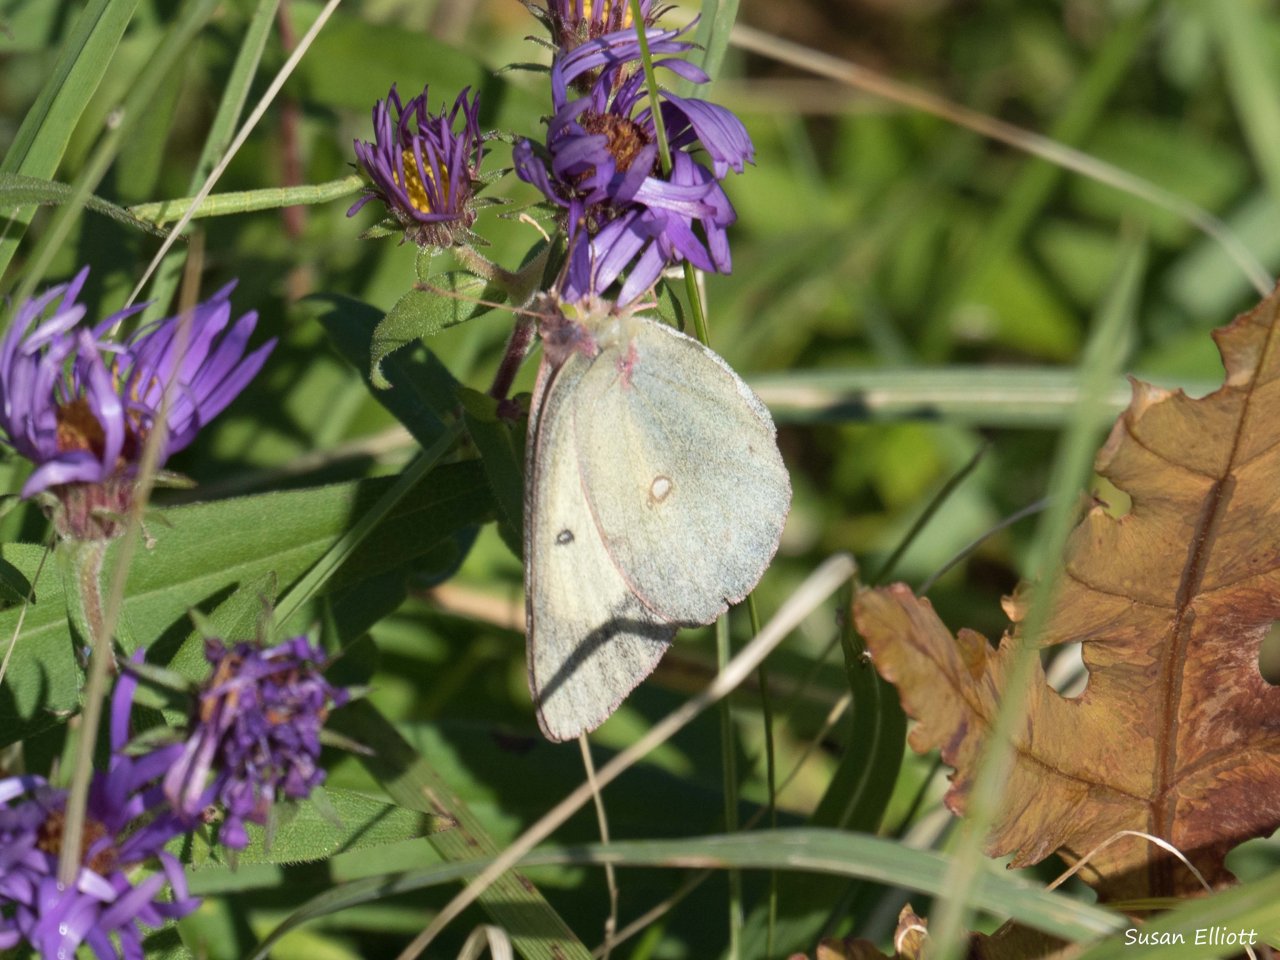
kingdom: Animalia
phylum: Arthropoda
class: Insecta
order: Lepidoptera
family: Pieridae
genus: Colias
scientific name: Colias philodice
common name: Clouded Sulphur
